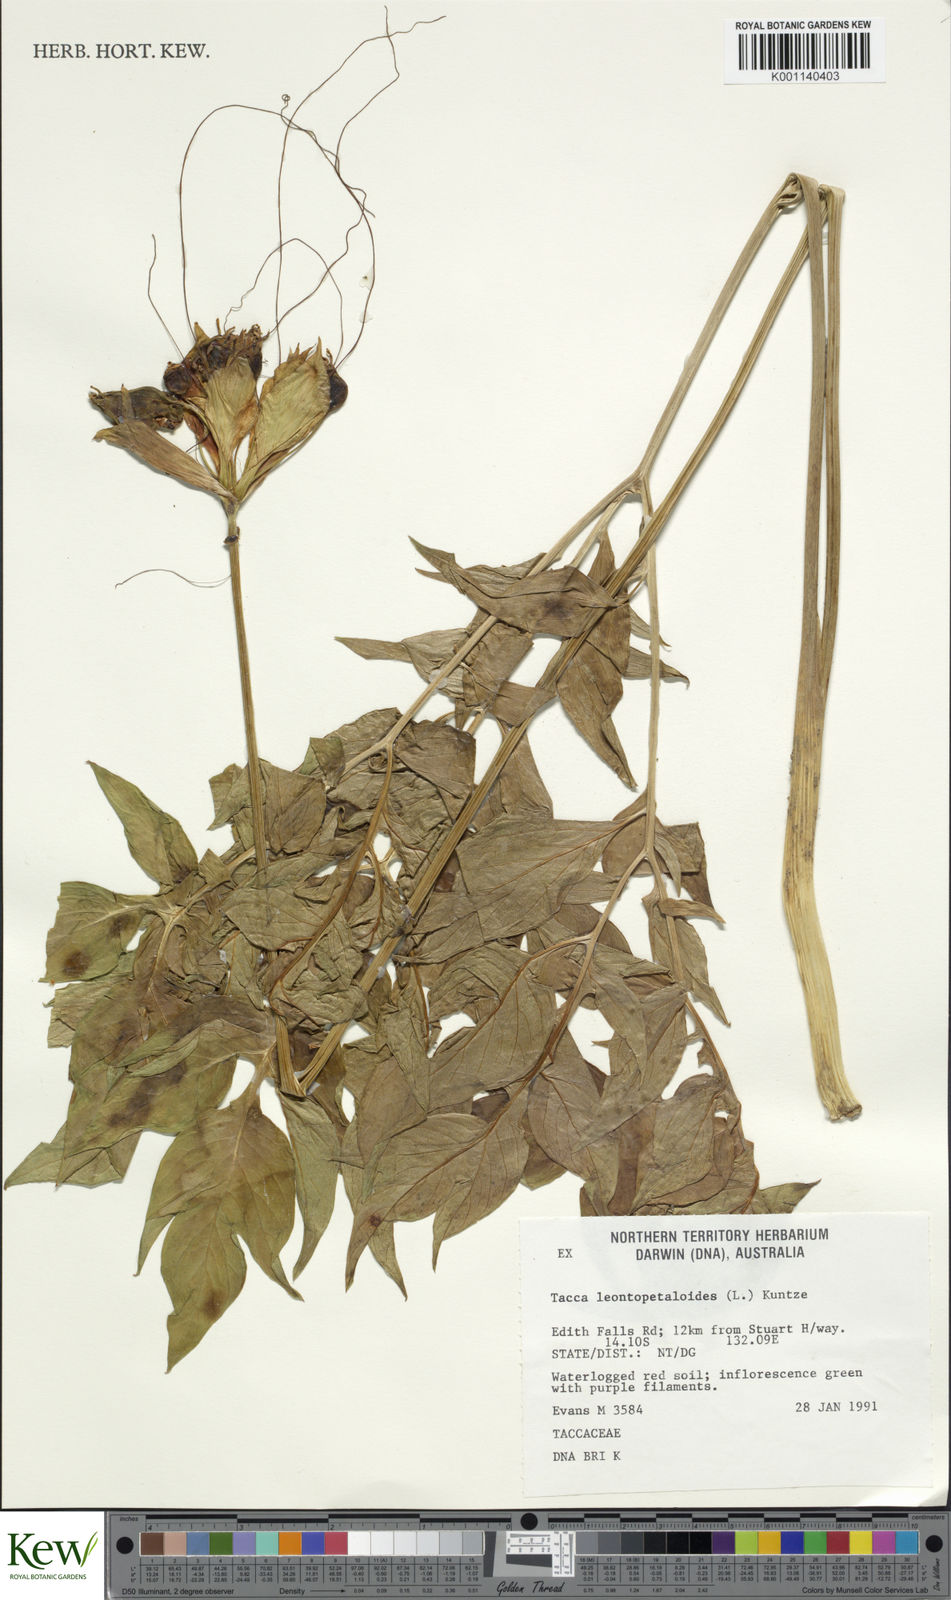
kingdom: Plantae
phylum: Tracheophyta
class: Liliopsida
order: Dioscoreales
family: Dioscoreaceae
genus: Tacca
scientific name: Tacca leontopetaloides
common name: Arrowroot
